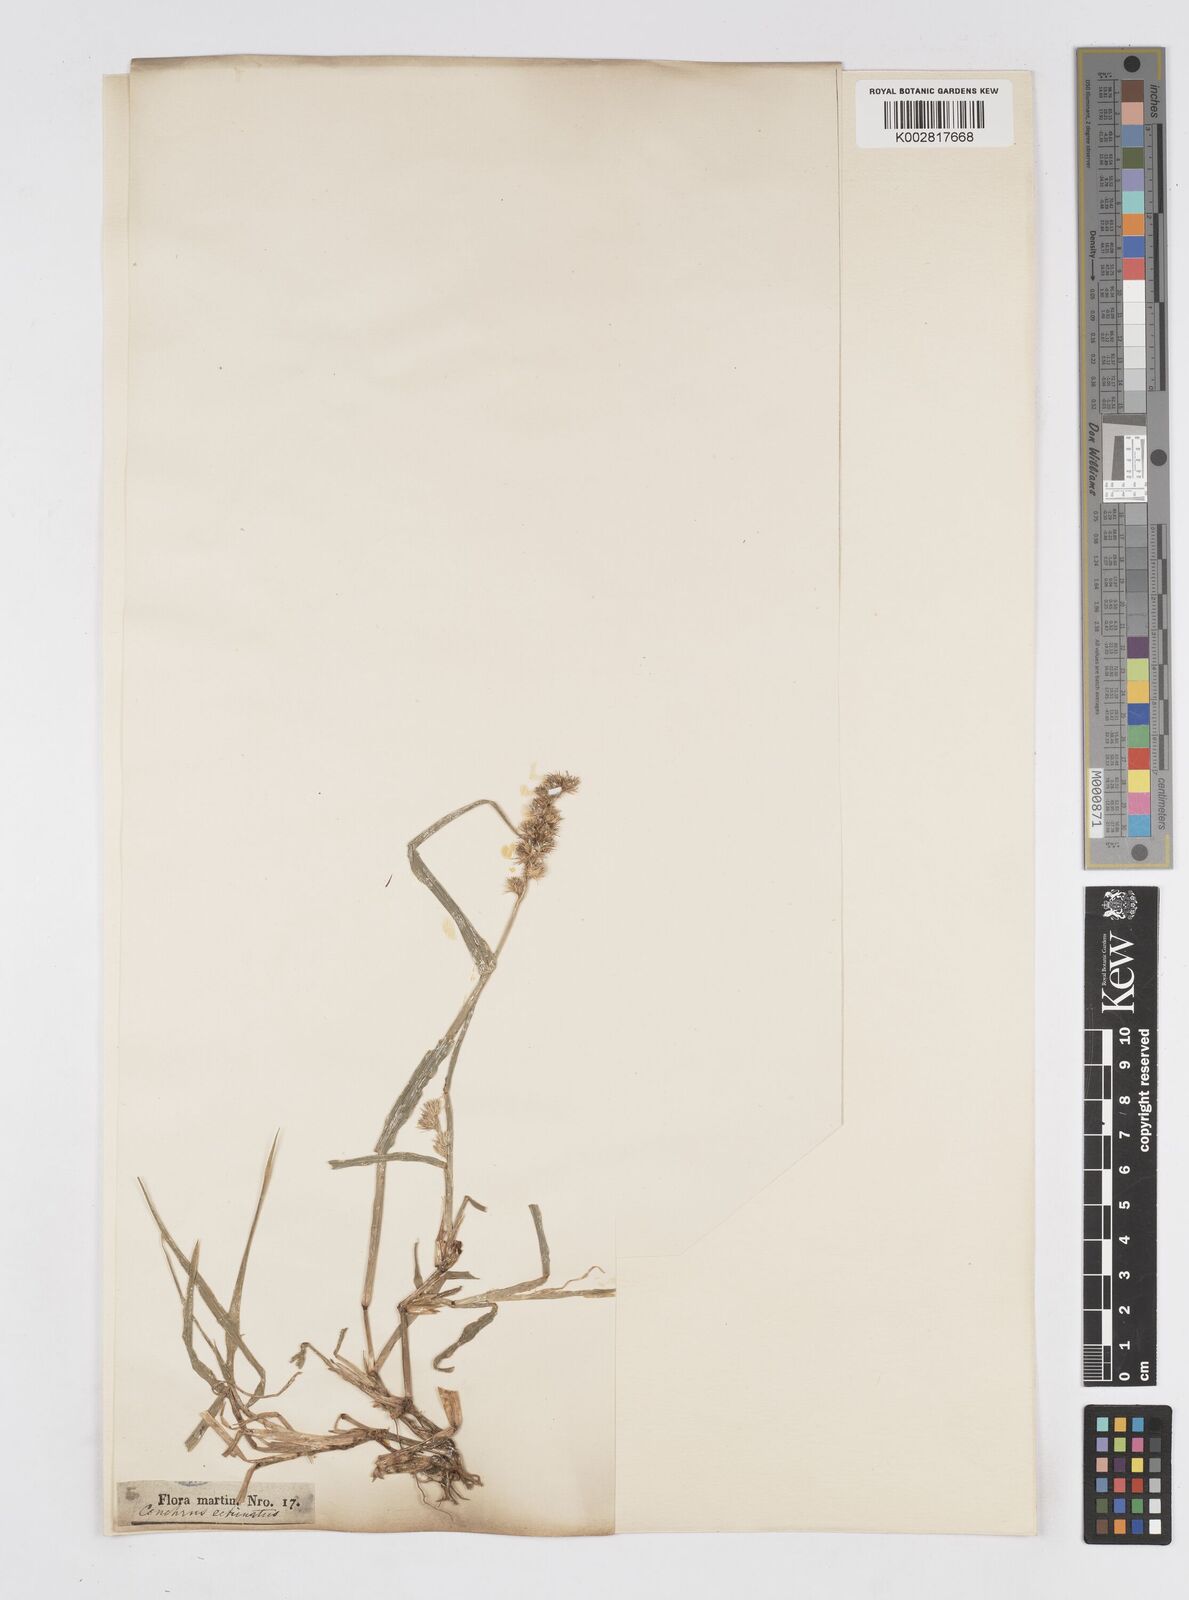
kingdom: Plantae
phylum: Tracheophyta
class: Liliopsida
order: Poales
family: Poaceae
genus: Cenchrus
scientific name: Cenchrus
